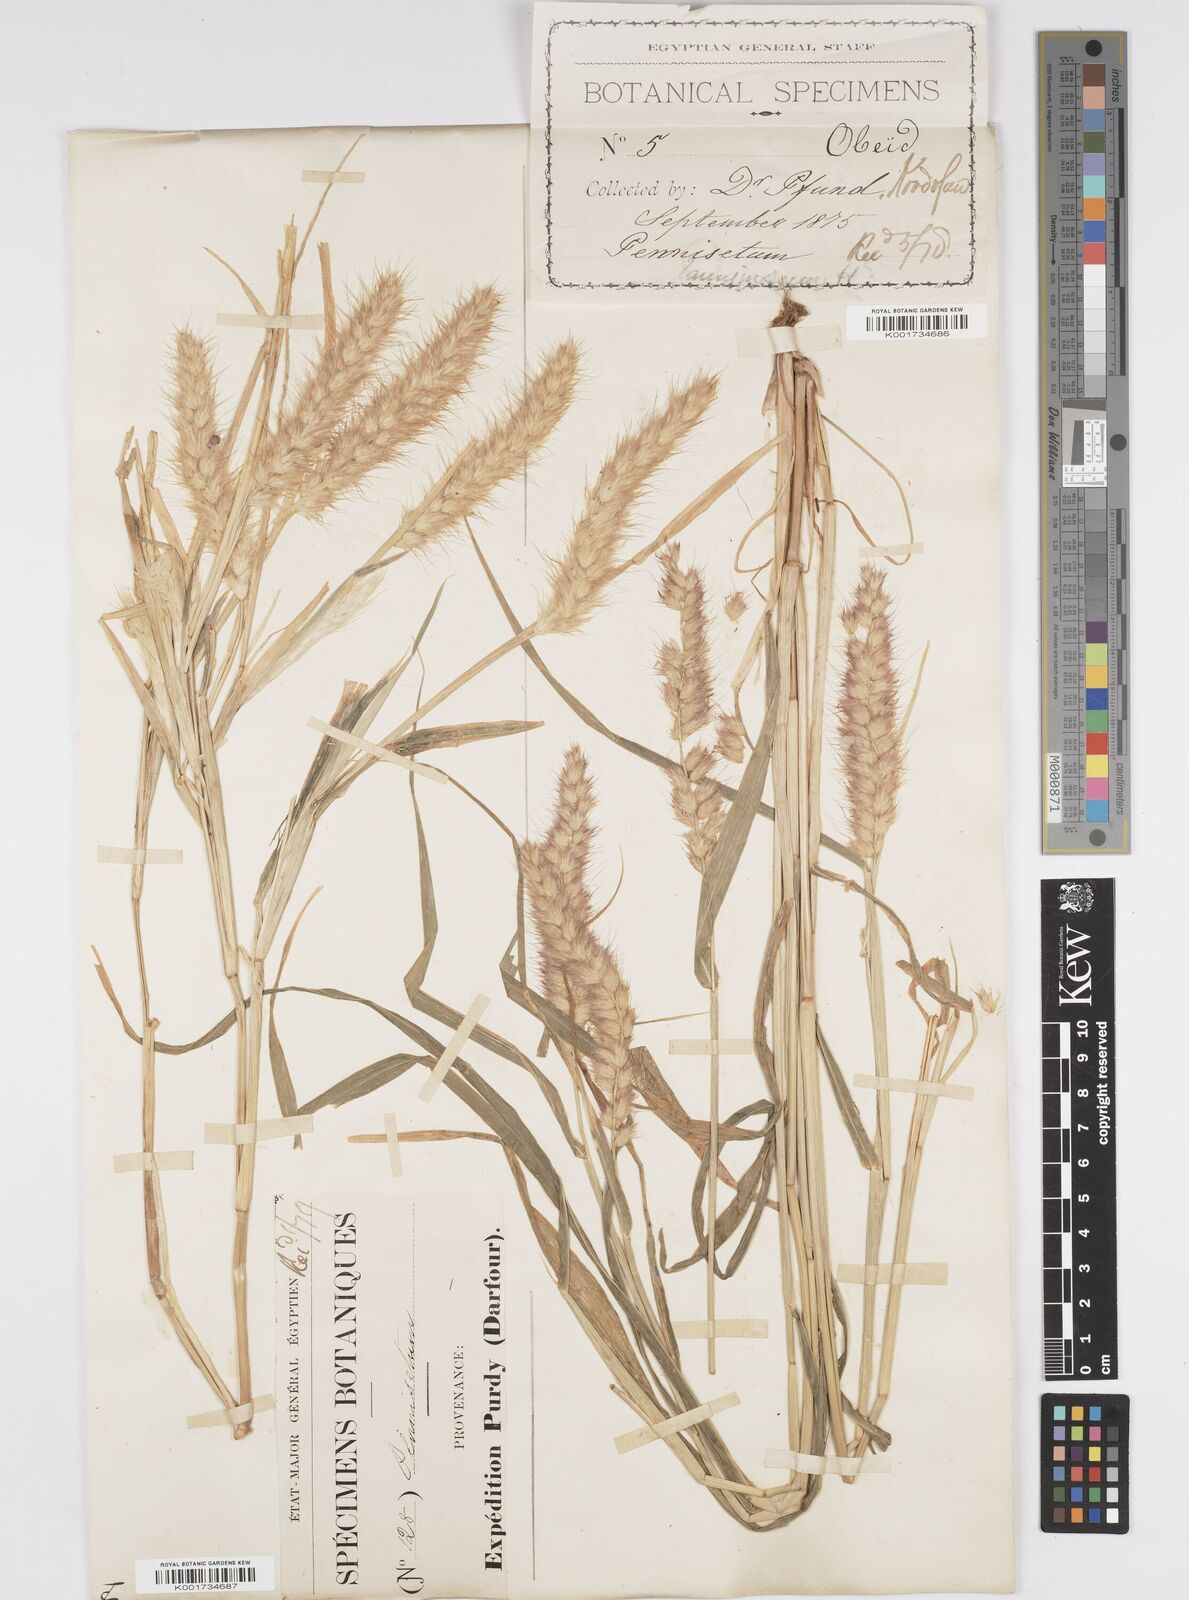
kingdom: Plantae
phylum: Tracheophyta
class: Liliopsida
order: Poales
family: Poaceae
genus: Cenchrus
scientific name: Cenchrus pedicellatus
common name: Hairy fountain grass
